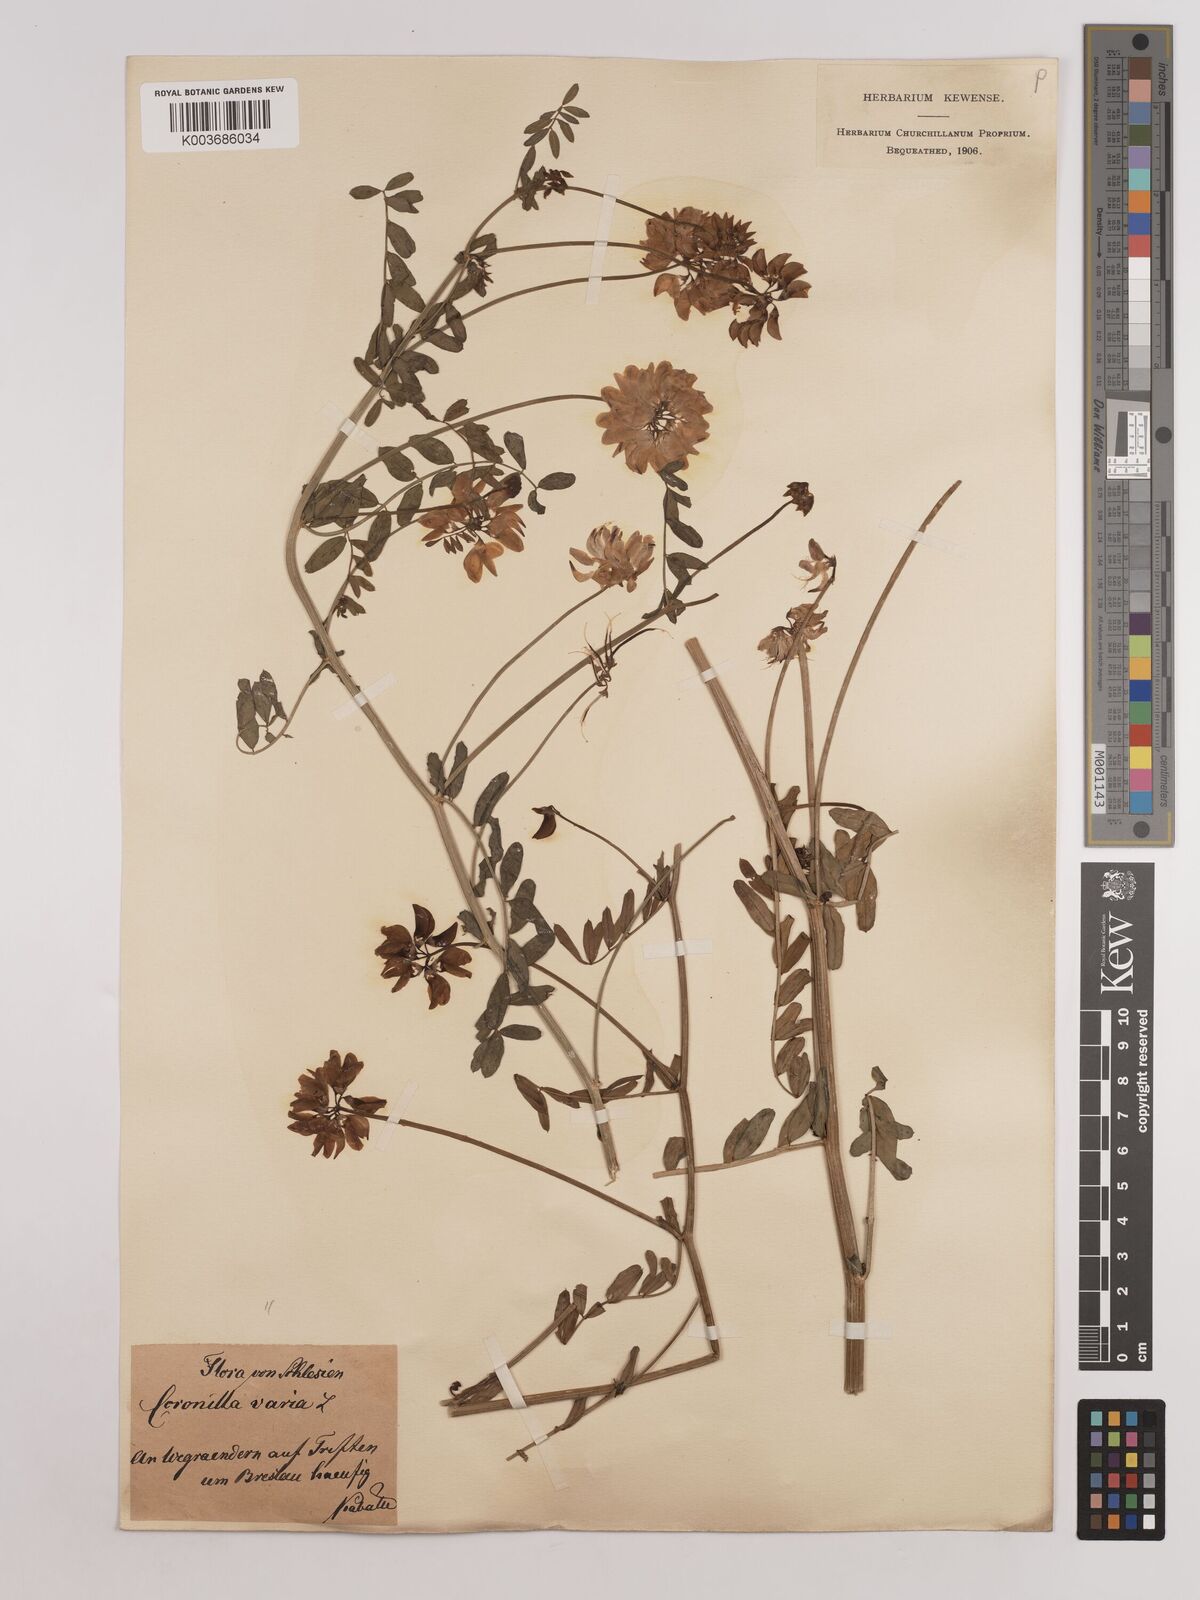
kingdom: Plantae
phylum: Tracheophyta
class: Magnoliopsida
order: Fabales
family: Fabaceae
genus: Coronilla
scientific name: Coronilla varia
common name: Crownvetch
